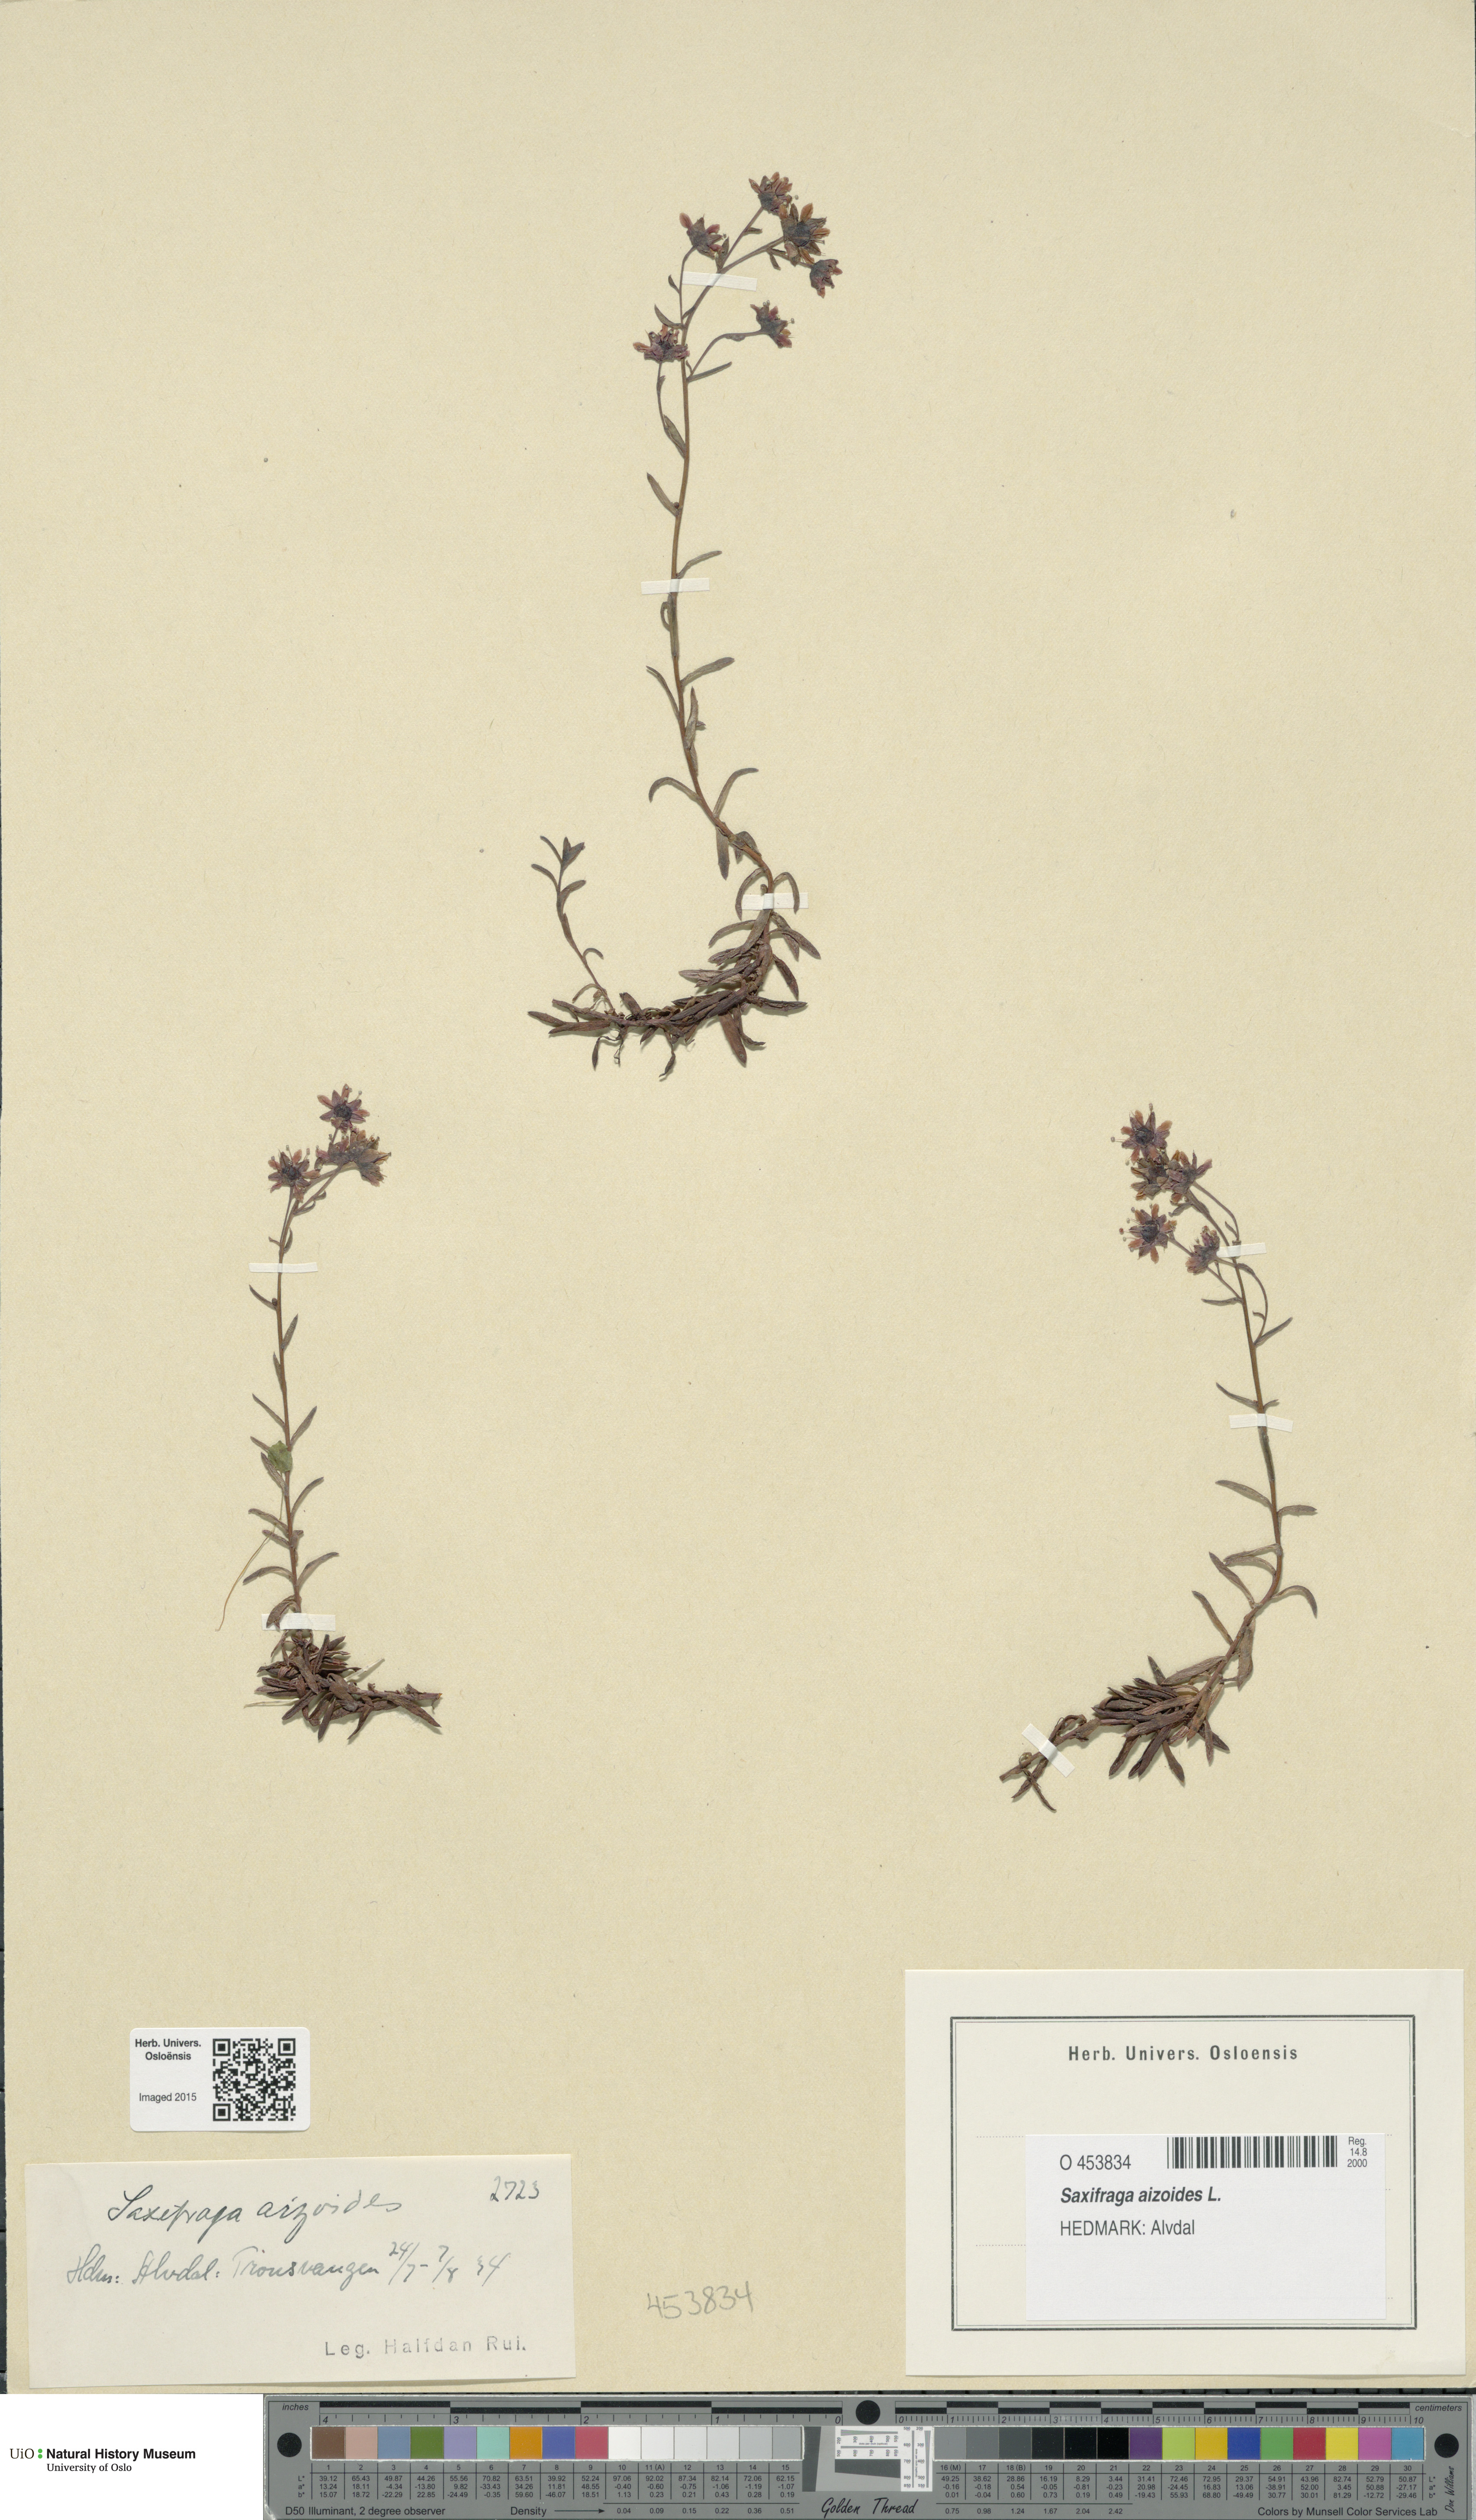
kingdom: Plantae
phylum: Tracheophyta
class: Magnoliopsida
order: Saxifragales
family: Saxifragaceae
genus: Saxifraga
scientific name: Saxifraga aizoides
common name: Yellow mountain saxifrage
